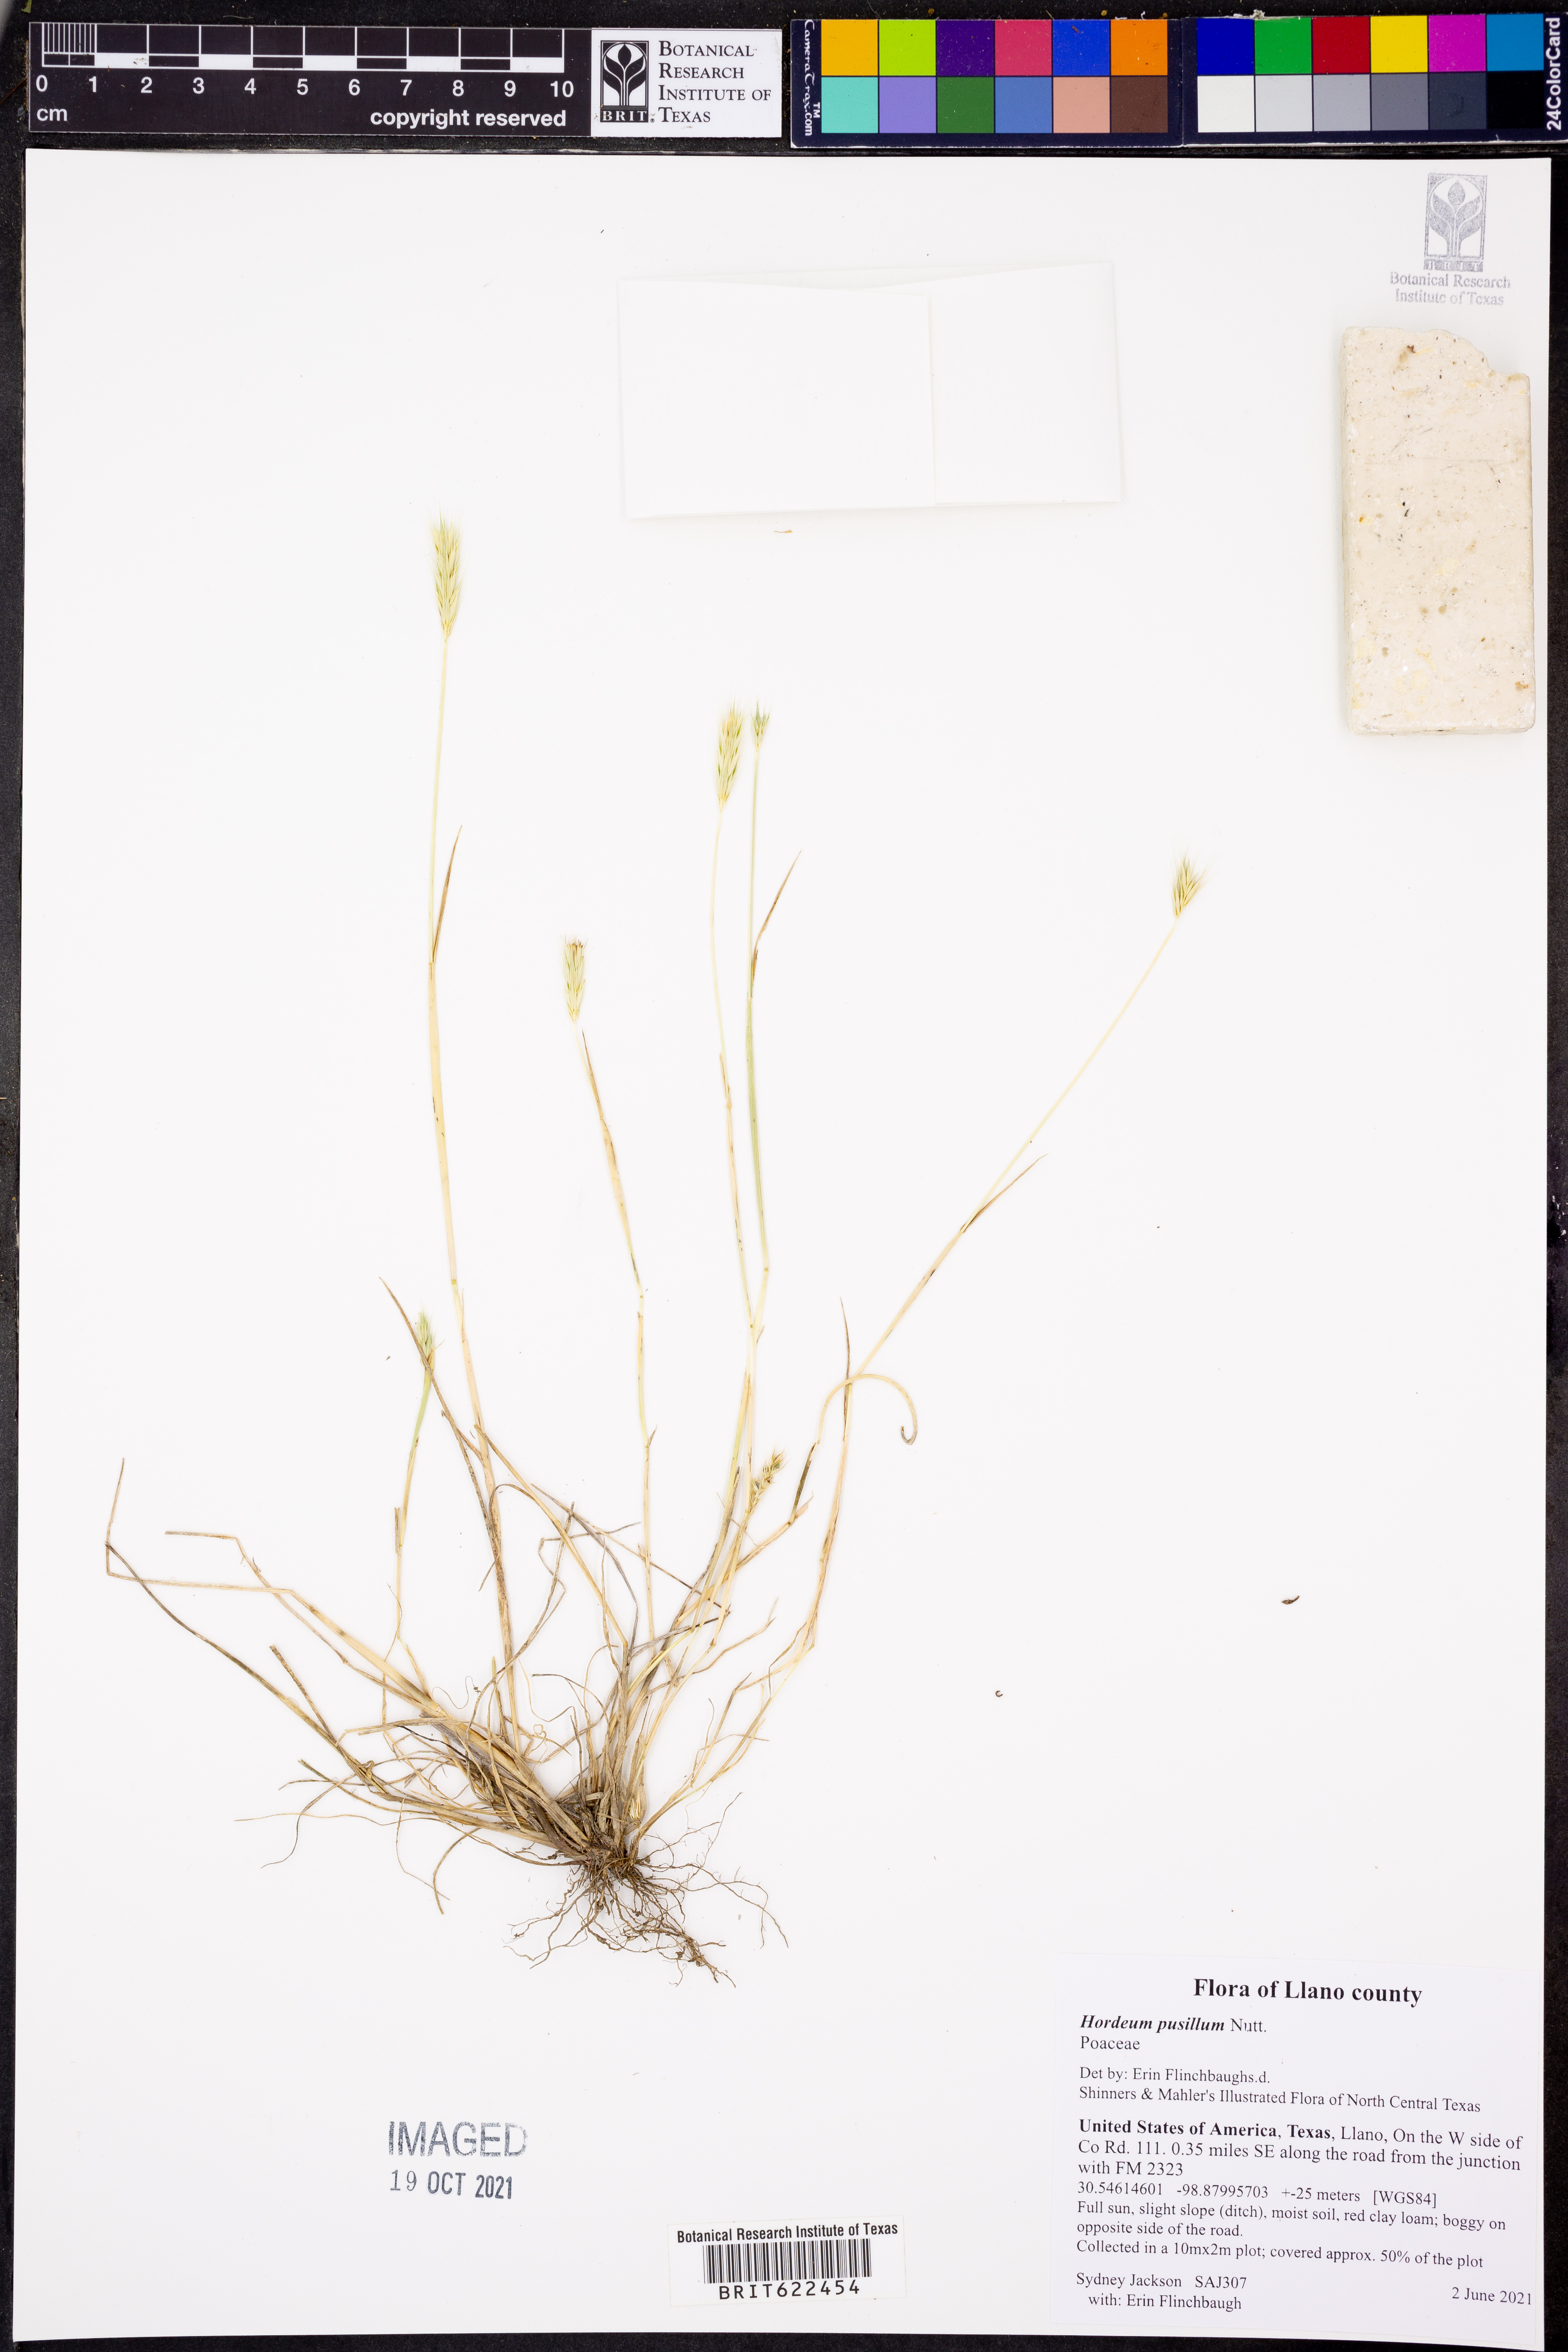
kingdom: Plantae
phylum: Tracheophyta
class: Liliopsida
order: Poales
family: Poaceae
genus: Hordeum
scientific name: Hordeum pusillum
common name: Little barley
